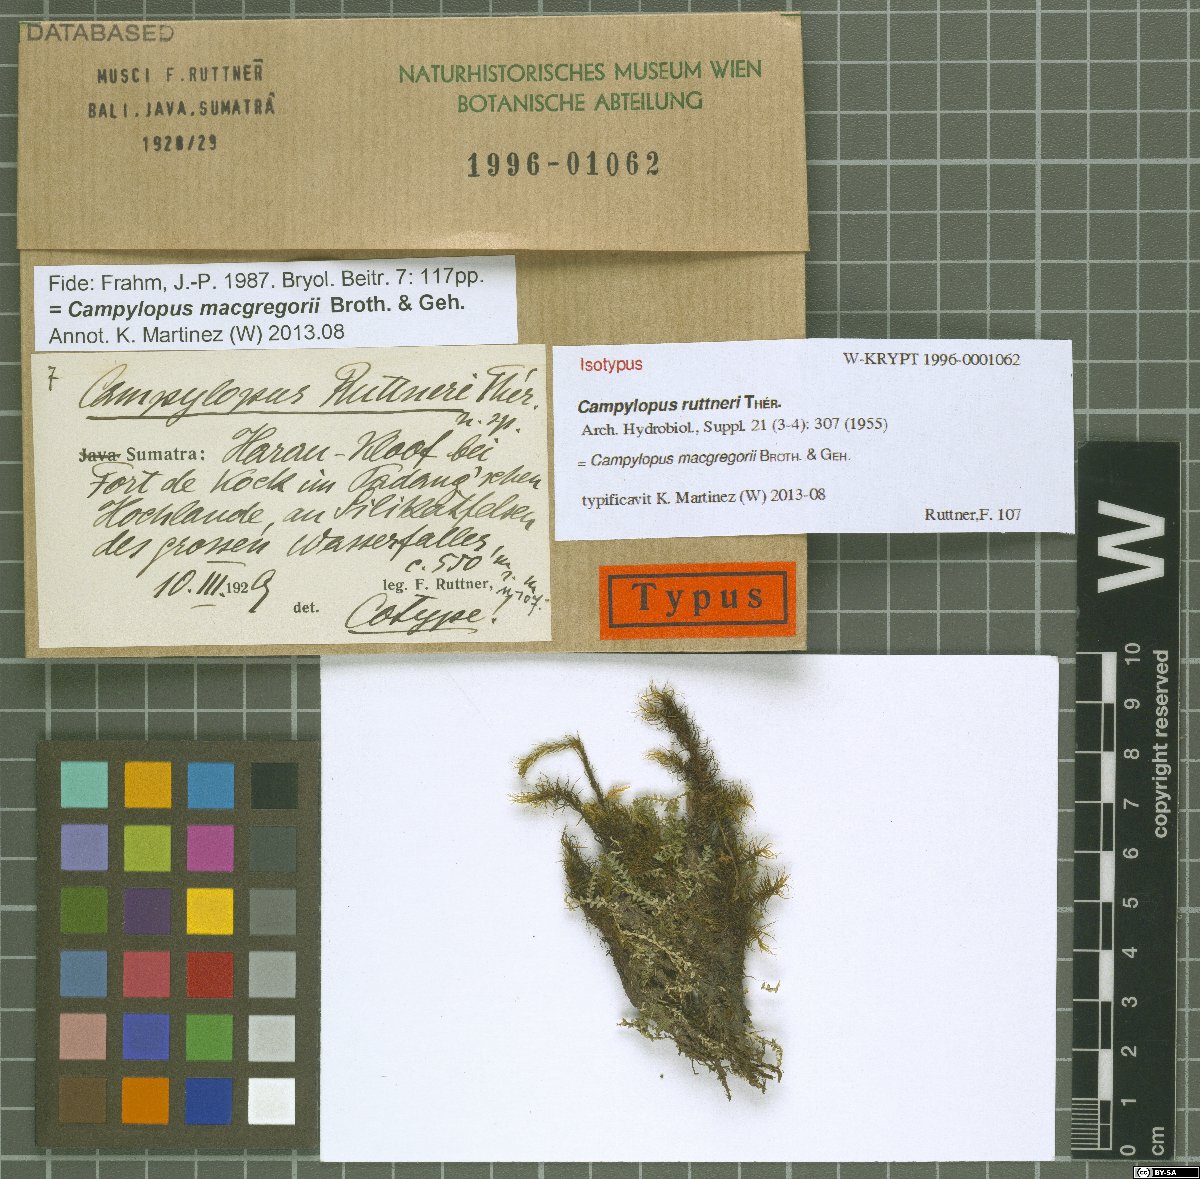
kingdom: Plantae
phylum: Bryophyta
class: Bryopsida
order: Dicranales
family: Leucobryaceae
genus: Campylopus
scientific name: Campylopus macgregorii
